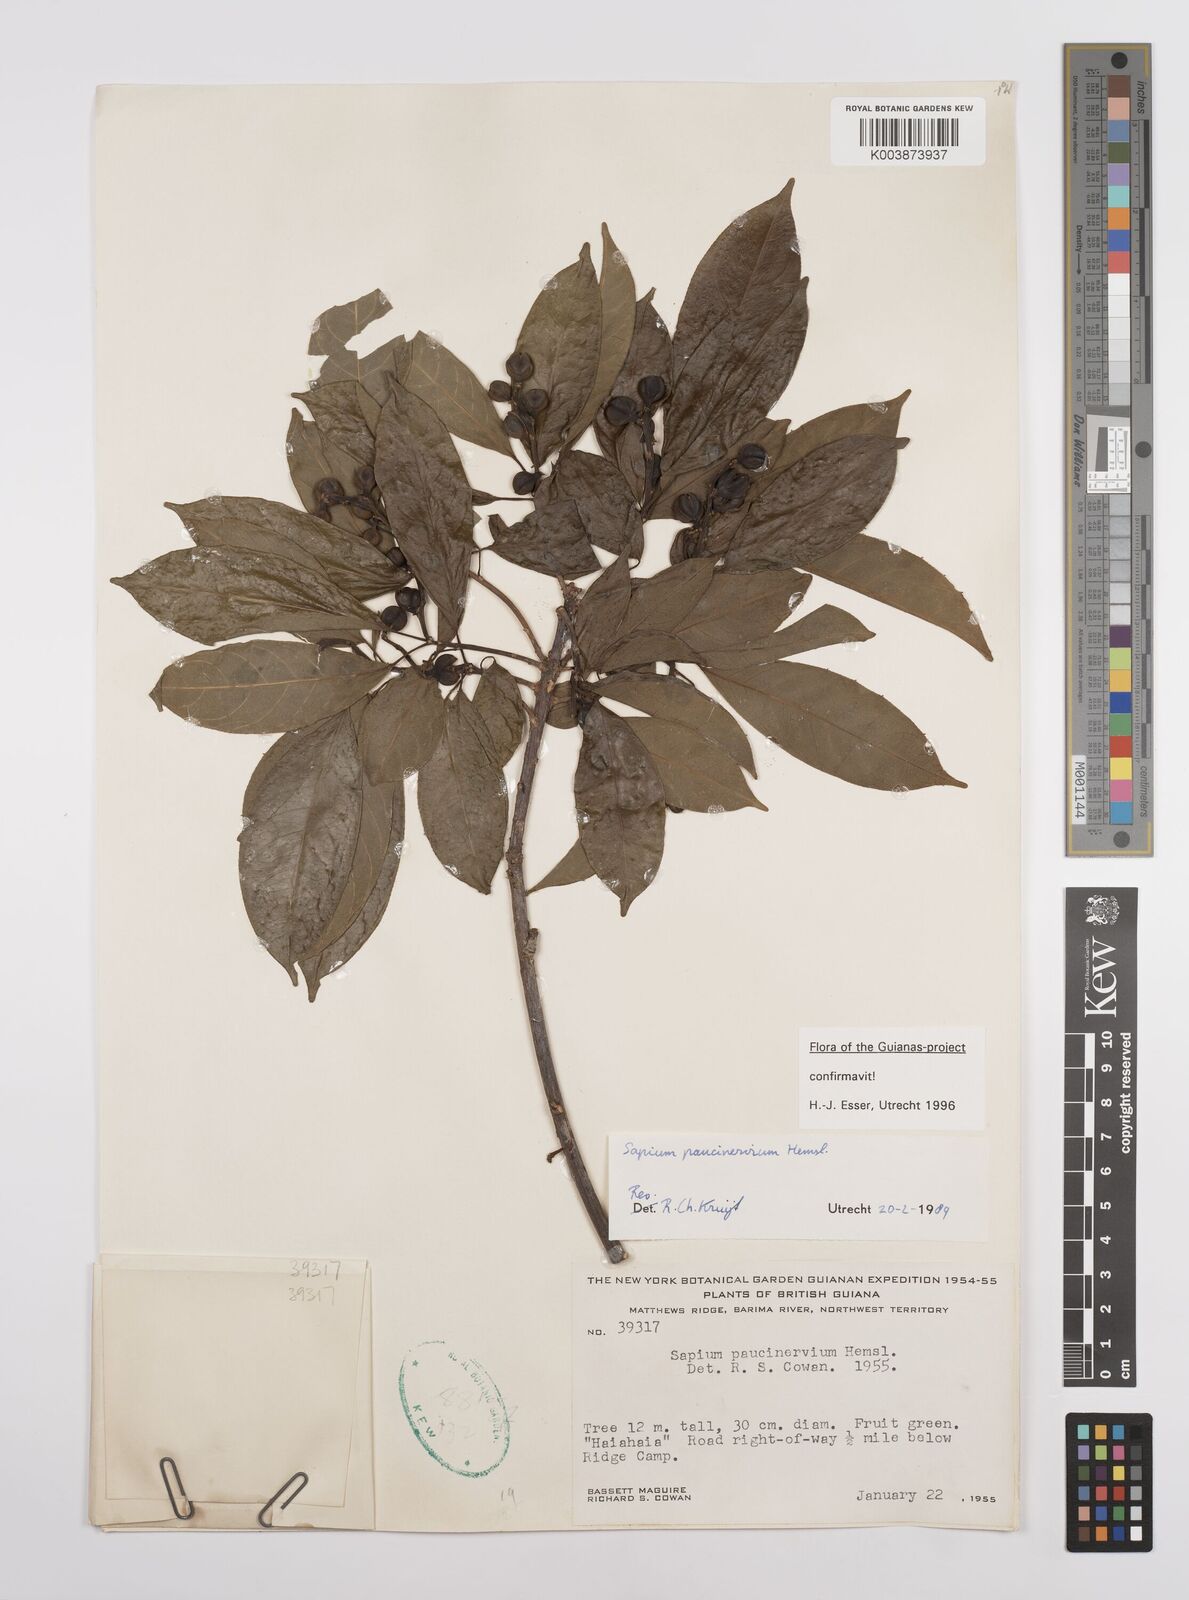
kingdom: Plantae
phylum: Tracheophyta
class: Magnoliopsida
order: Malpighiales
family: Euphorbiaceae
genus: Sapium
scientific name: Sapium paucinervium
